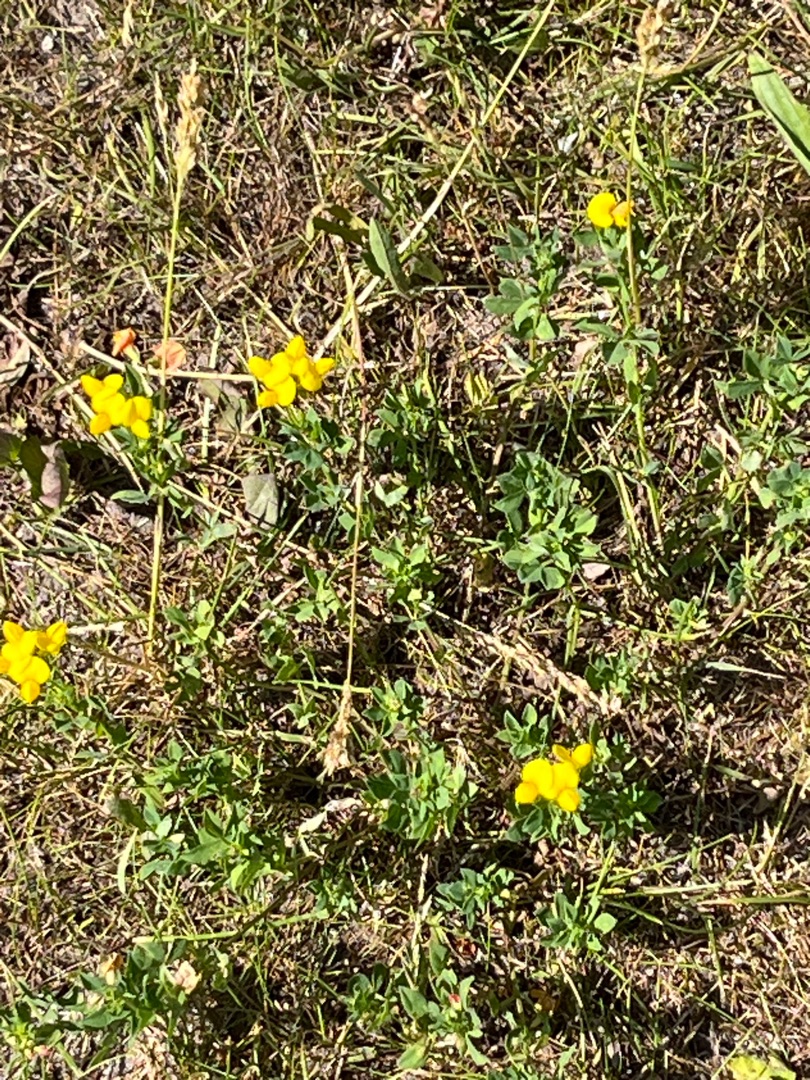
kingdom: Plantae
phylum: Tracheophyta
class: Magnoliopsida
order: Fabales
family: Fabaceae
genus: Lotus
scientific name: Lotus corniculatus
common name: Almindelig kællingetand
